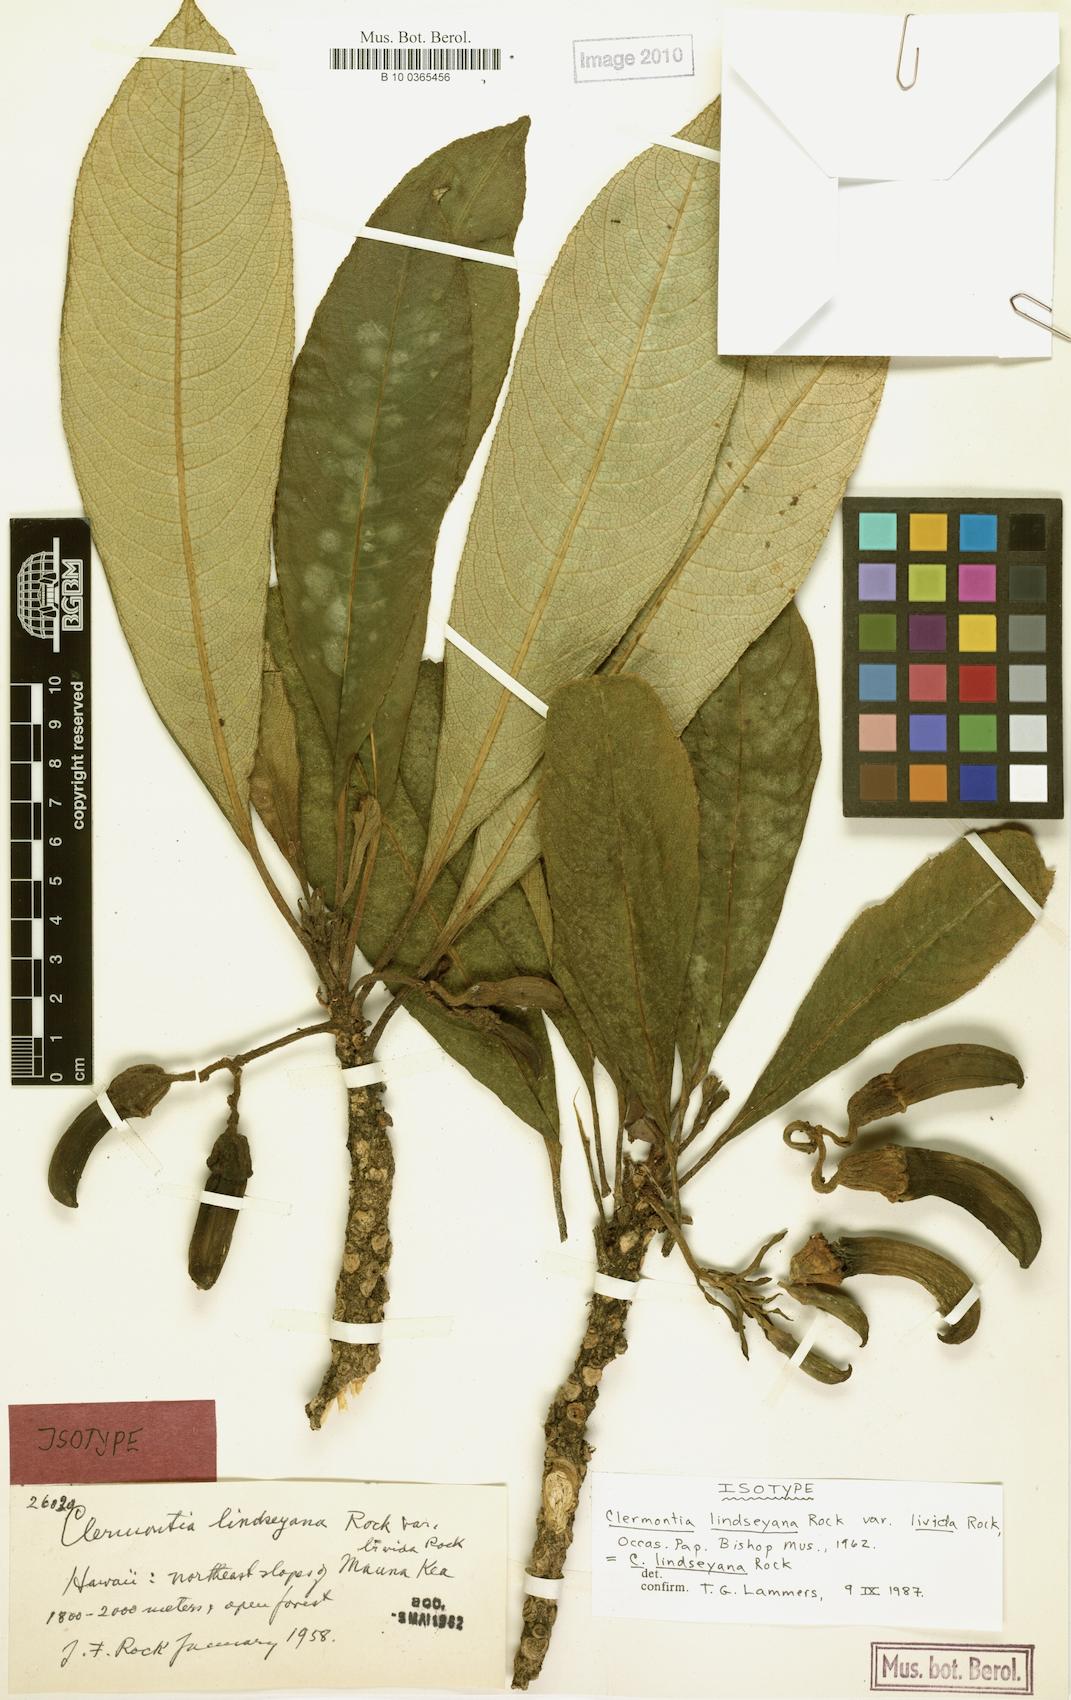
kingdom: Plantae
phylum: Tracheophyta
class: Magnoliopsida
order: Asterales
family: Campanulaceae
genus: Clermontia
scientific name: Clermontia lindseyana
